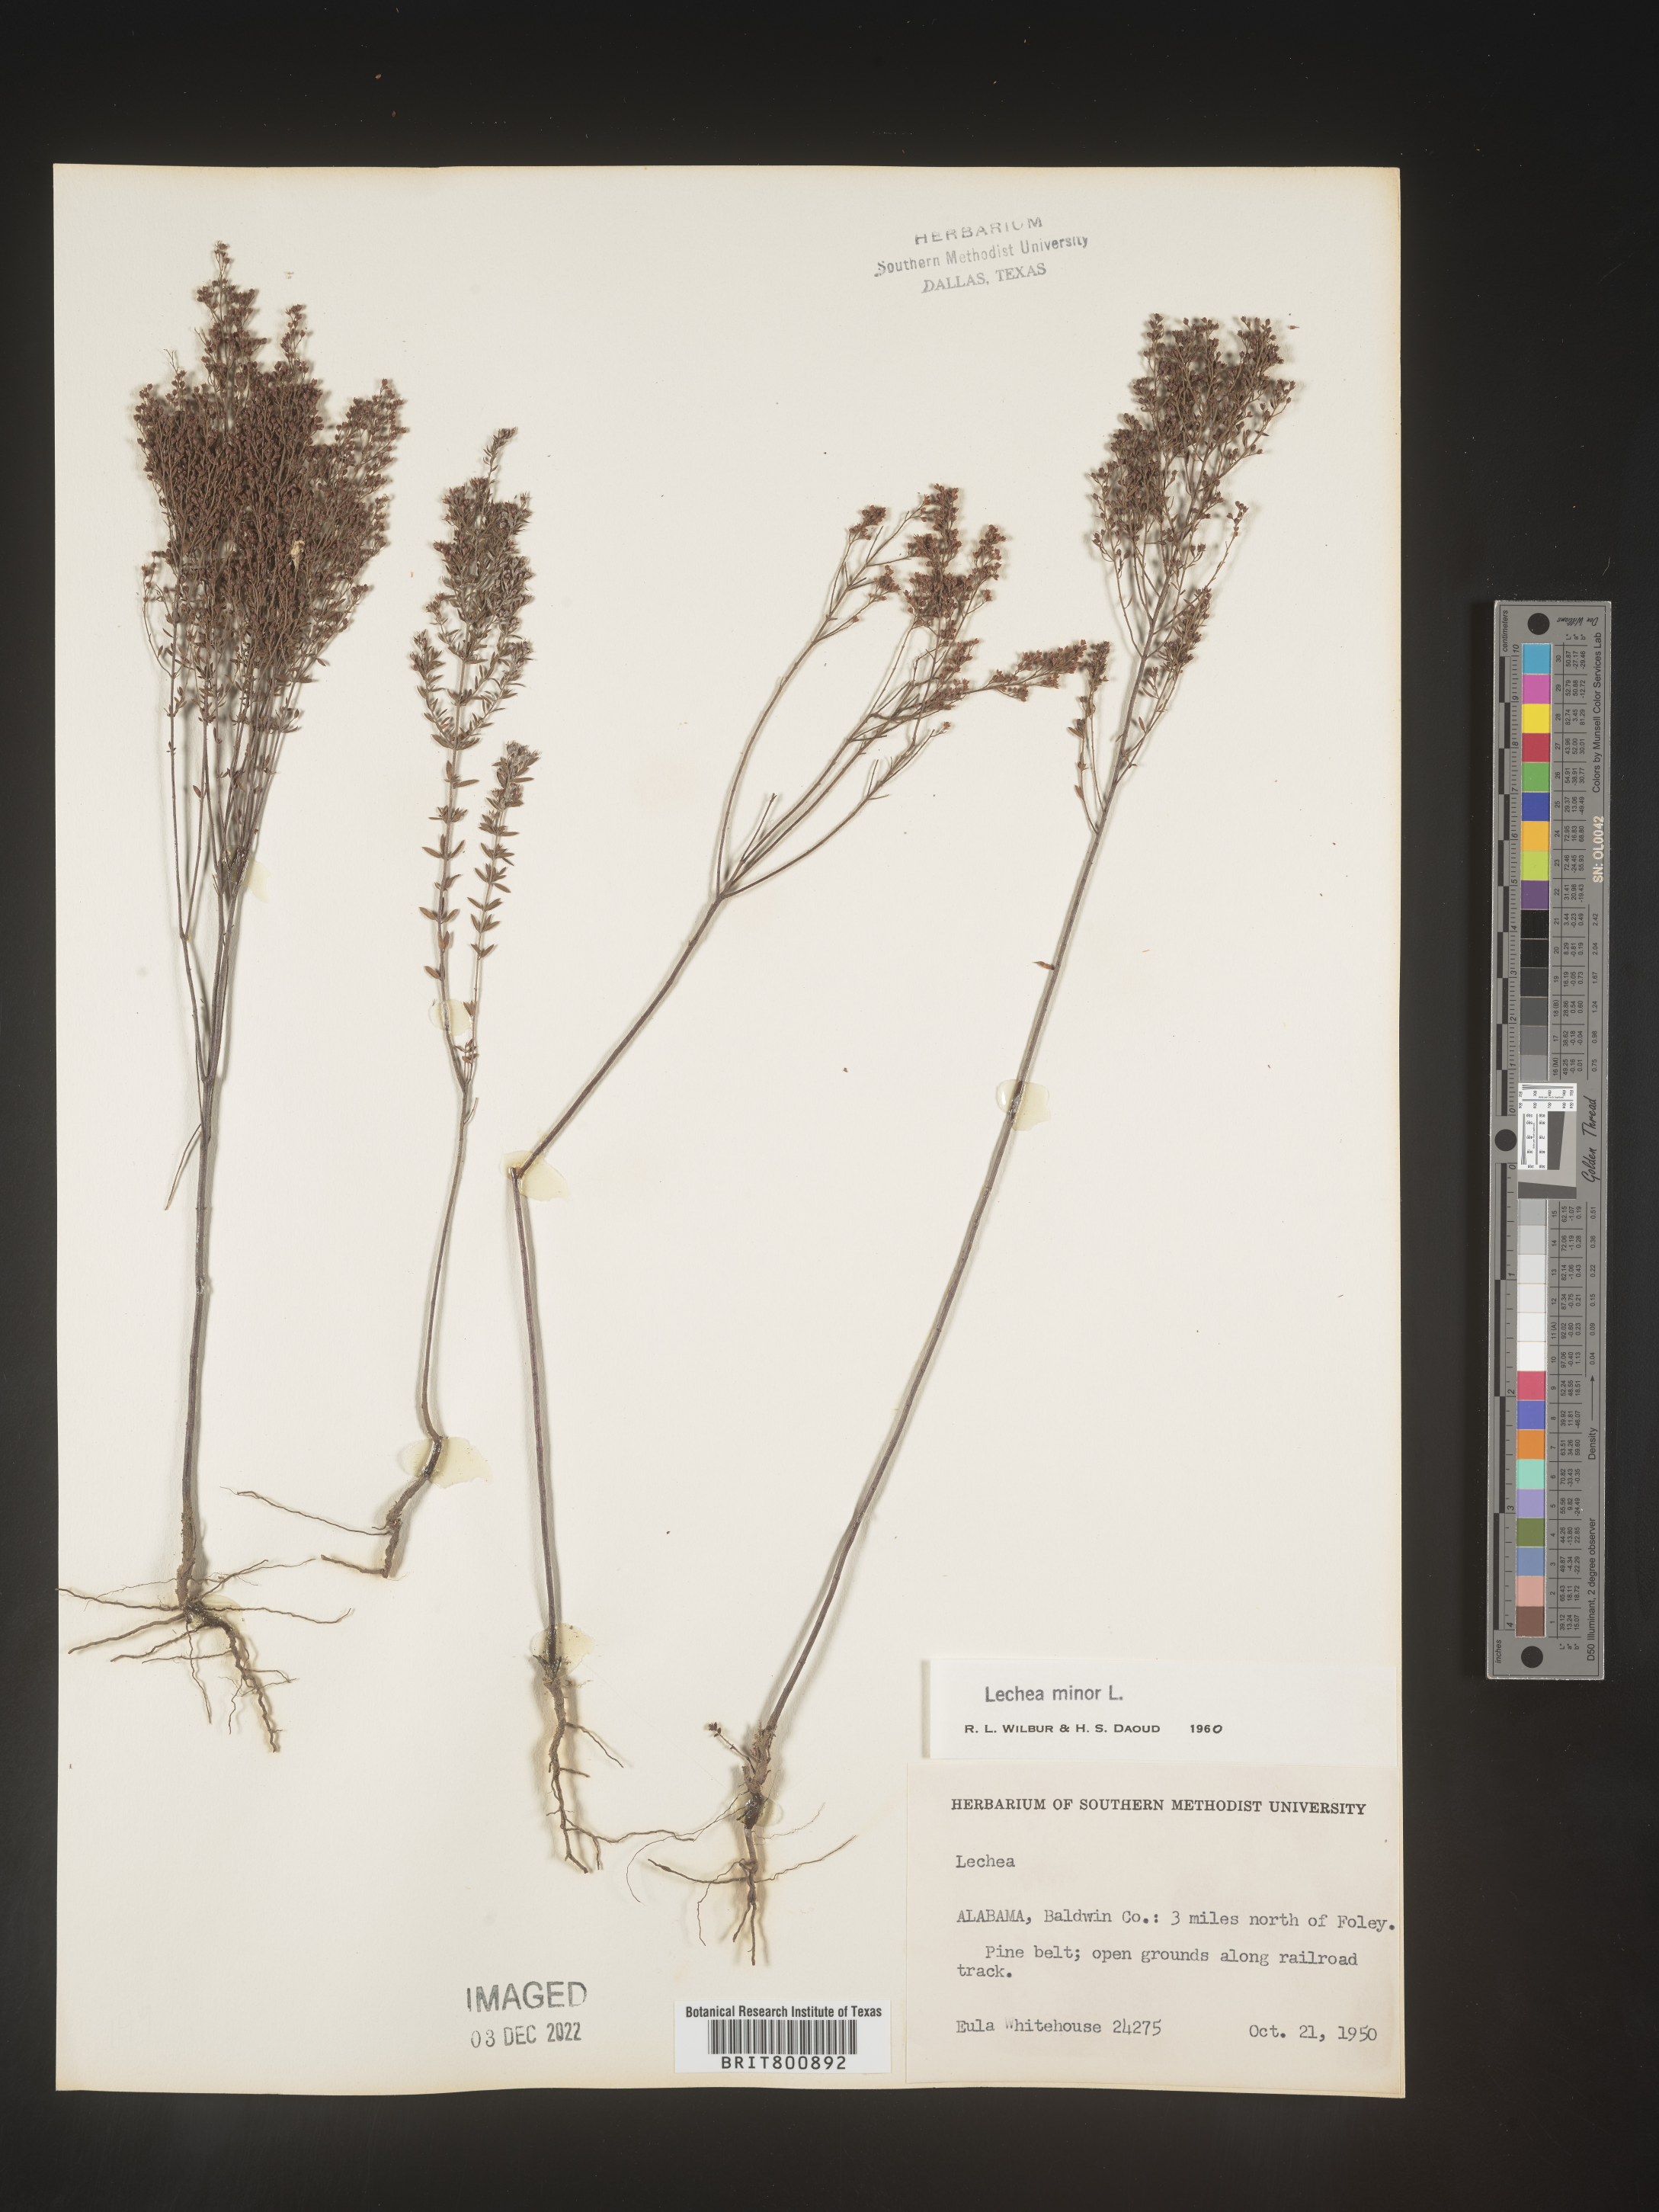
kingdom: Plantae
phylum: Tracheophyta
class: Magnoliopsida
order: Malvales
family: Cistaceae
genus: Lechea
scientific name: Lechea minor
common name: Thyme-leaf pinweed
